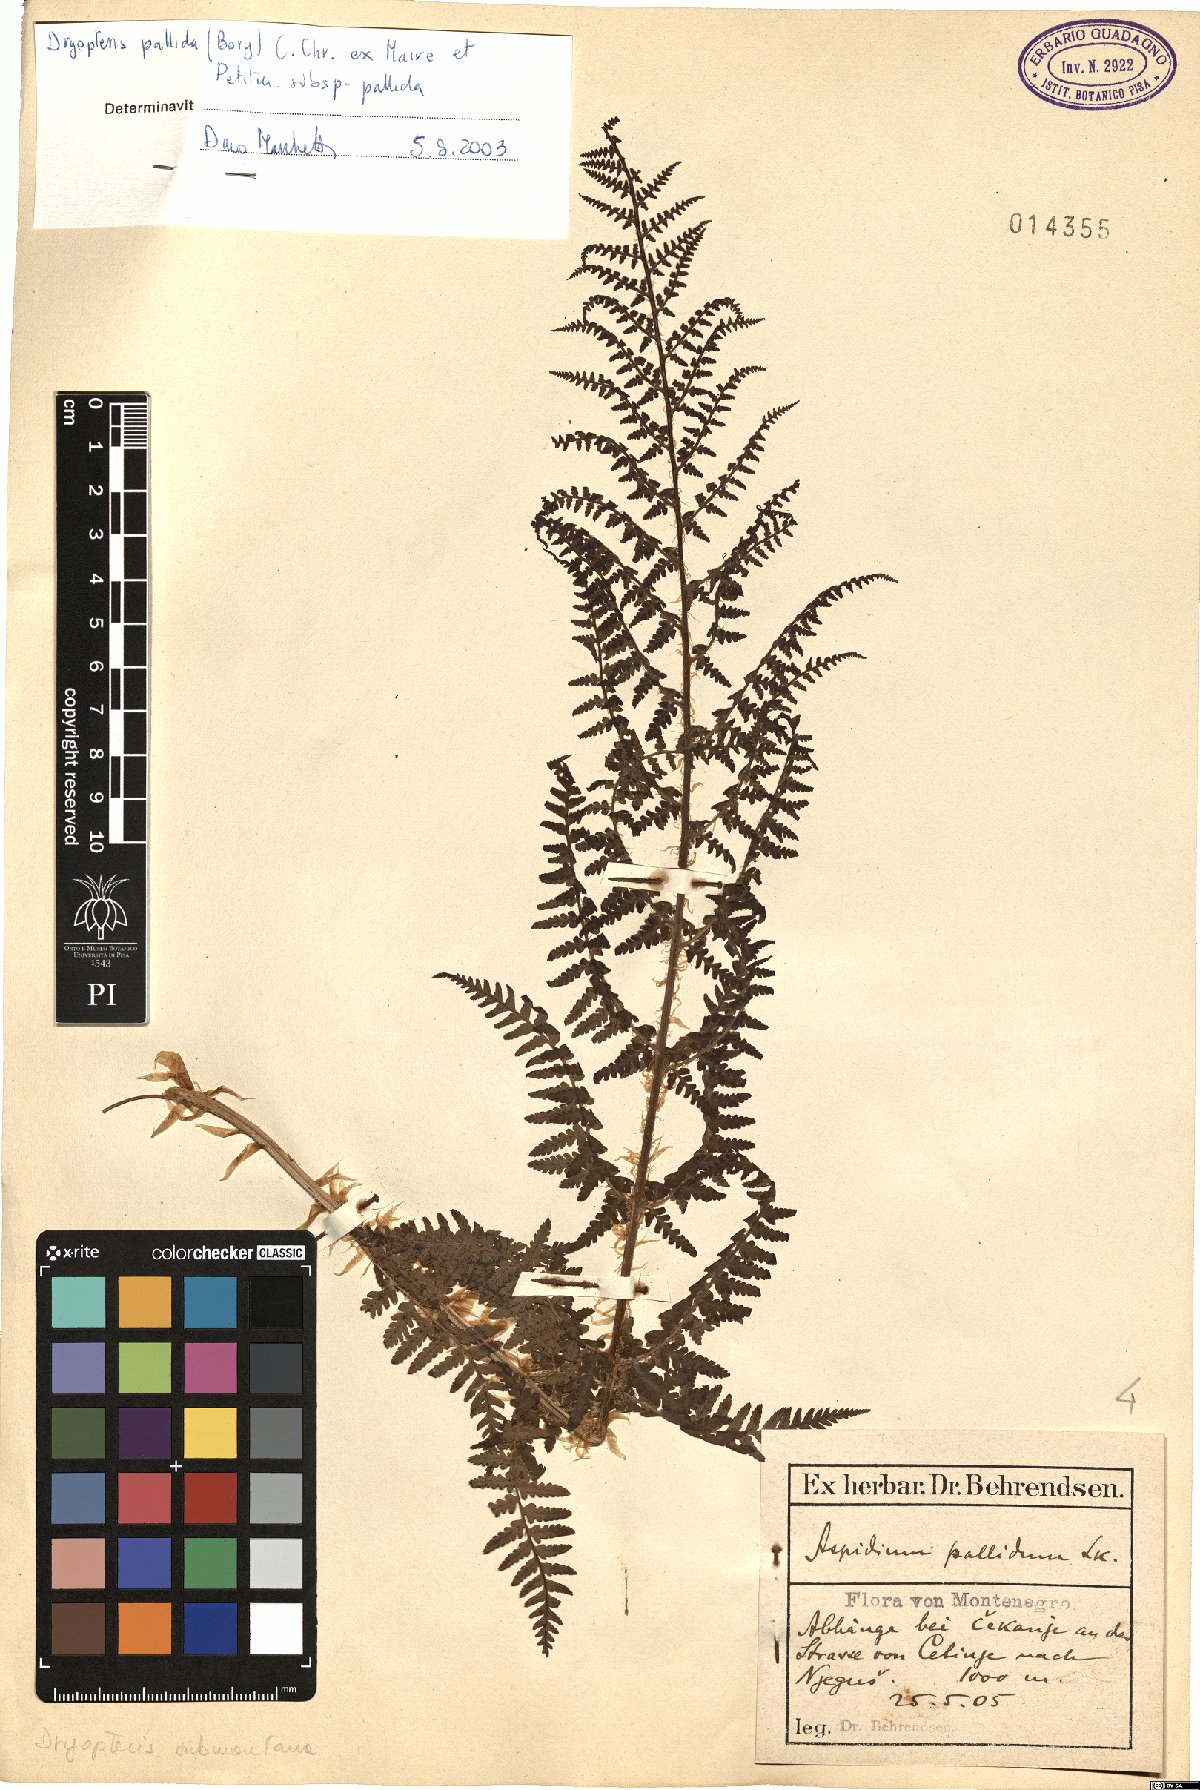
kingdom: Plantae
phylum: Tracheophyta
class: Polypodiopsida
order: Polypodiales
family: Dryopteridaceae
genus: Dryopteris
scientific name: Dryopteris pallida
